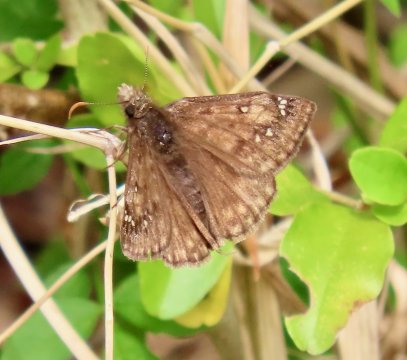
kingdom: Animalia
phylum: Arthropoda
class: Insecta
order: Lepidoptera
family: Hesperiidae
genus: Gesta
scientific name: Gesta
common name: Juvenal's Duskywing
